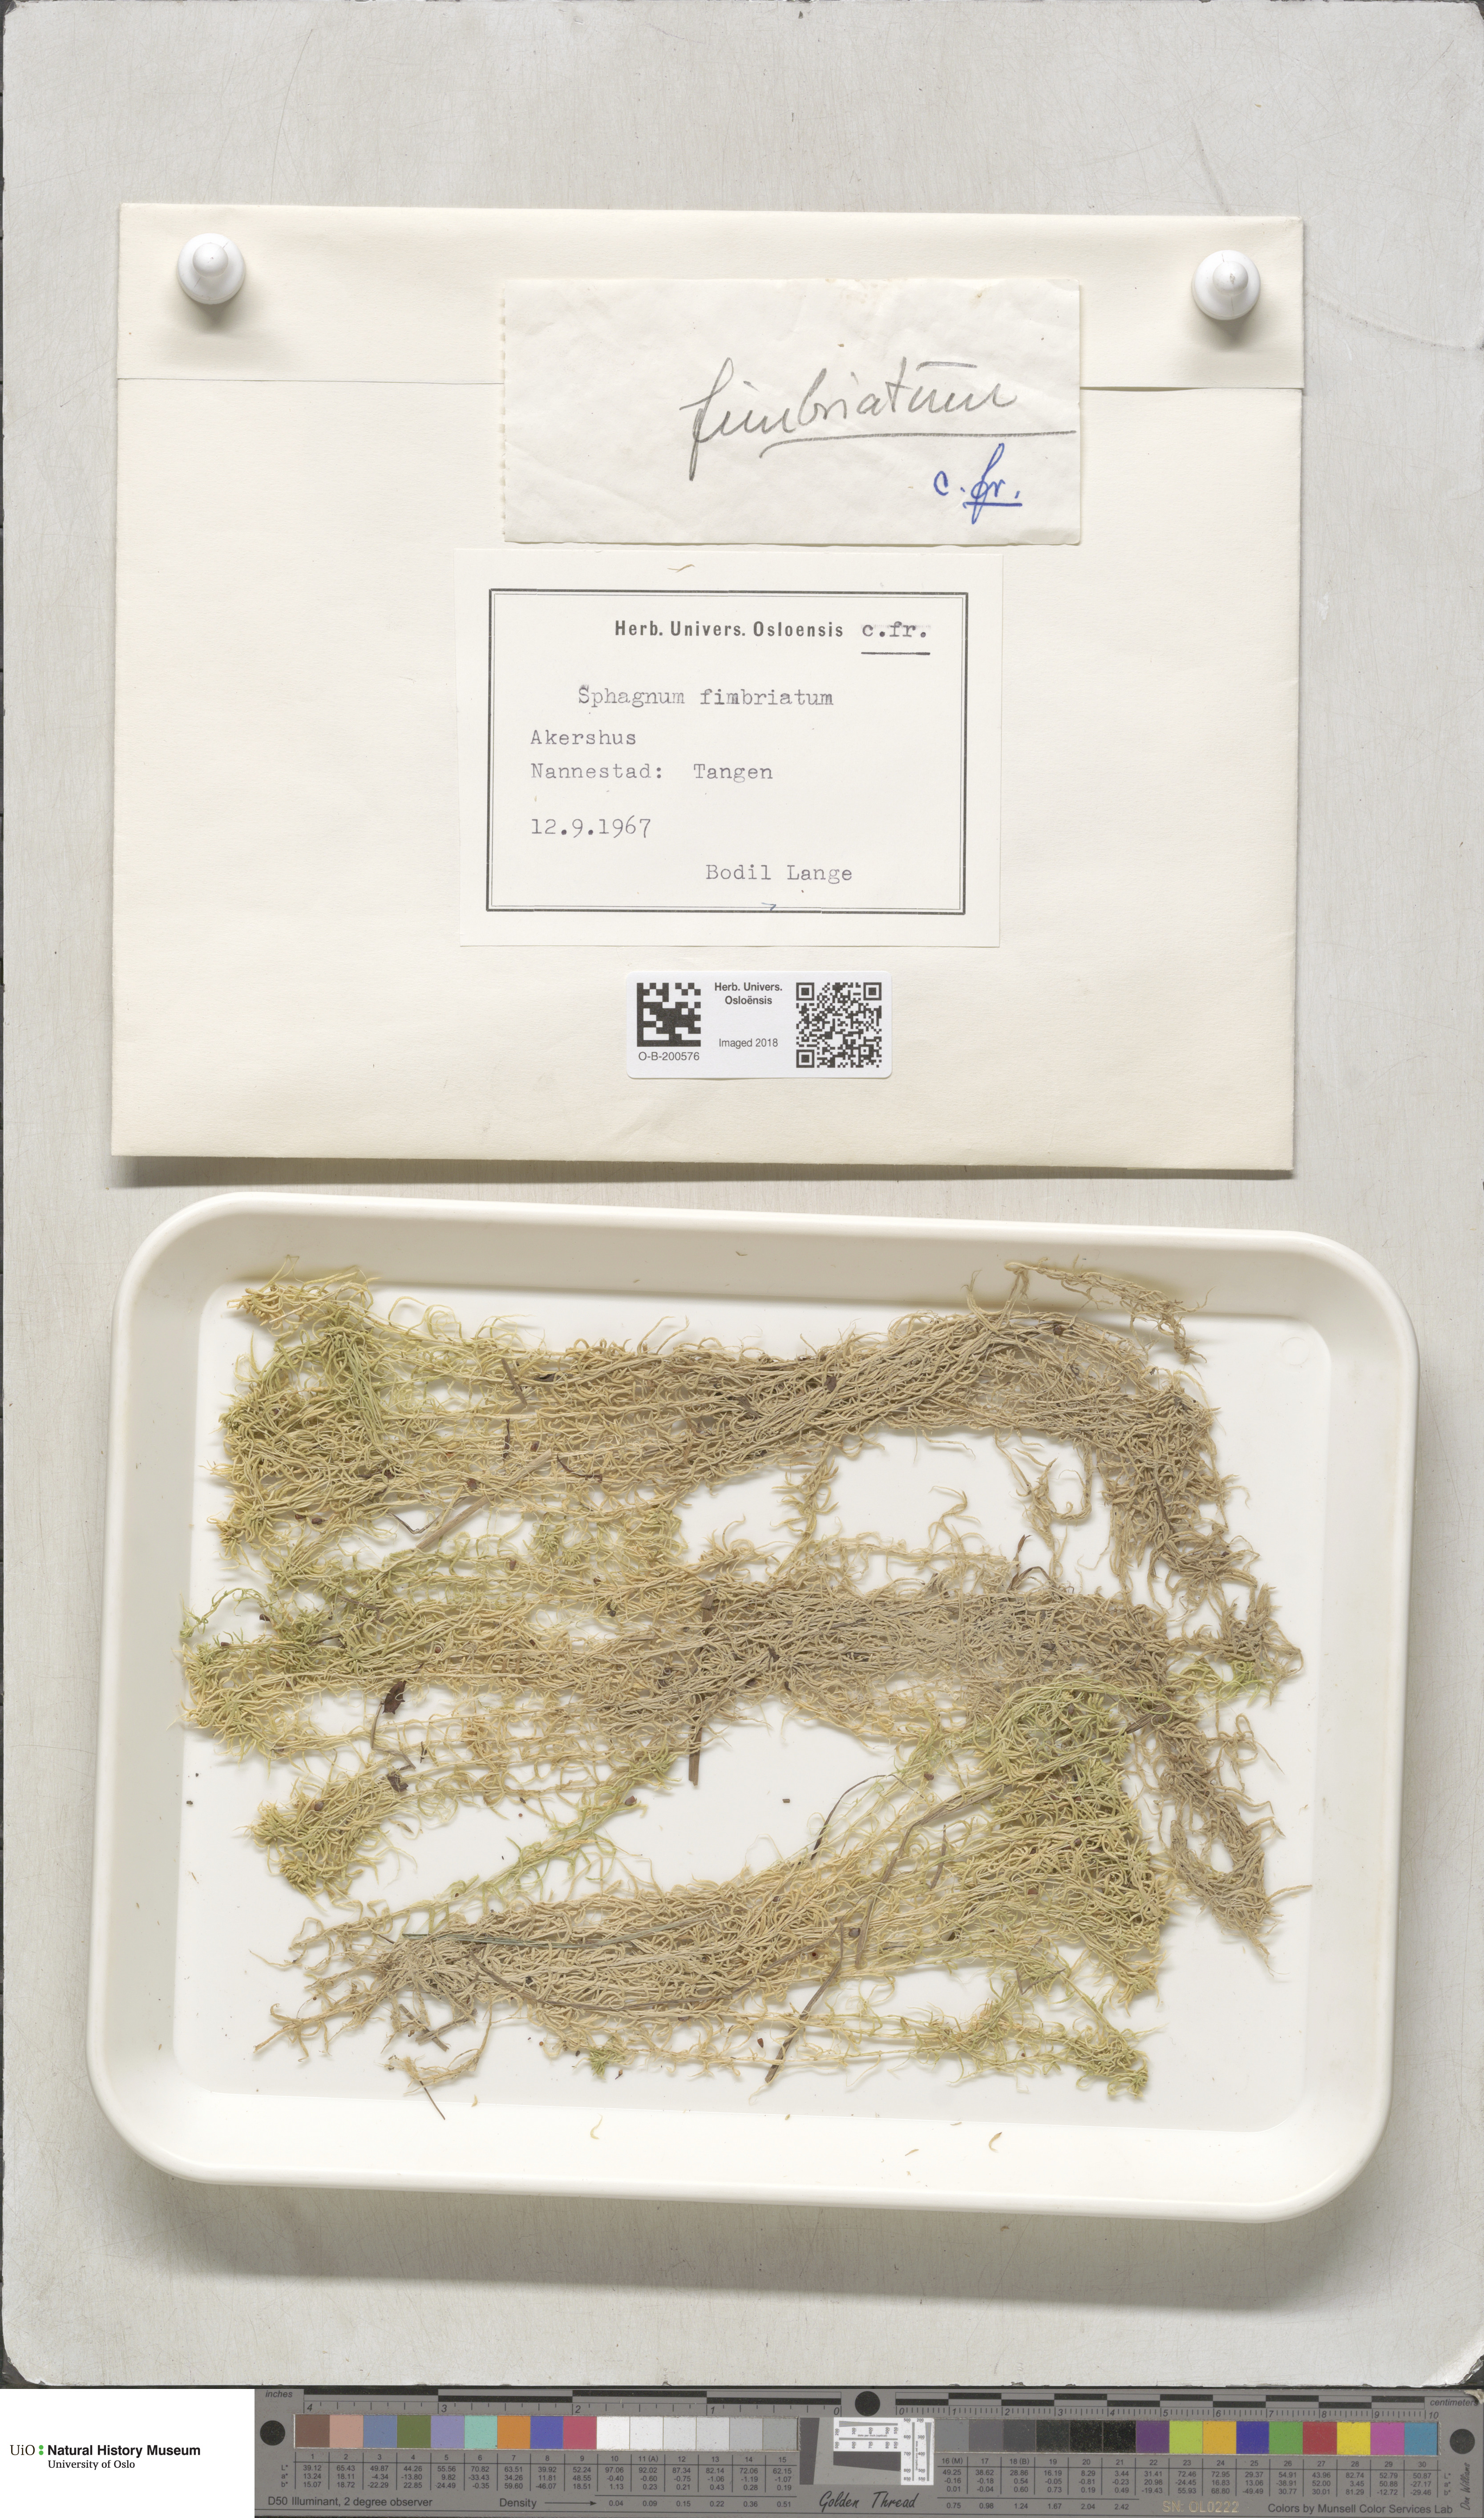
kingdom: Plantae
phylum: Bryophyta
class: Sphagnopsida
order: Sphagnales
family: Sphagnaceae
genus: Sphagnum
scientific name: Sphagnum fimbriatum
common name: Fringed peat moss
